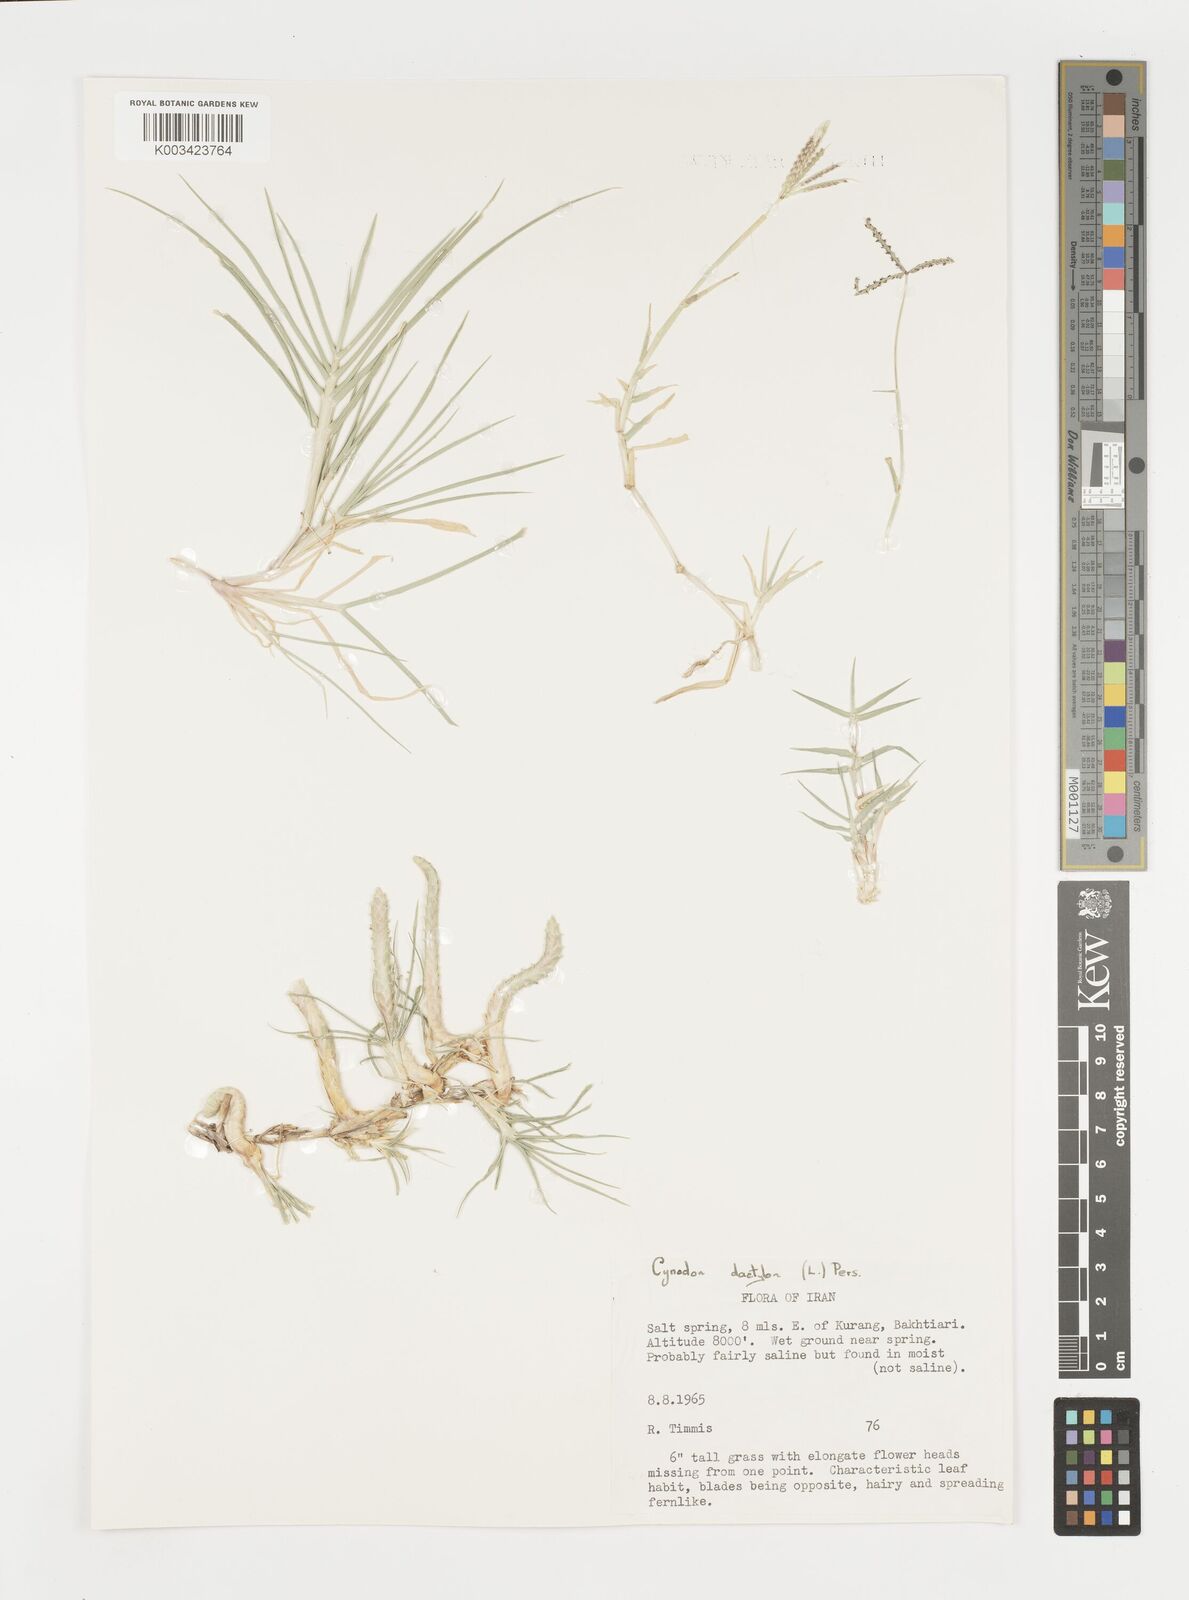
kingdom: Plantae
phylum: Tracheophyta
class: Liliopsida
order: Poales
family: Poaceae
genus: Cynodon
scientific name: Cynodon dactylon
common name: Bermuda grass
